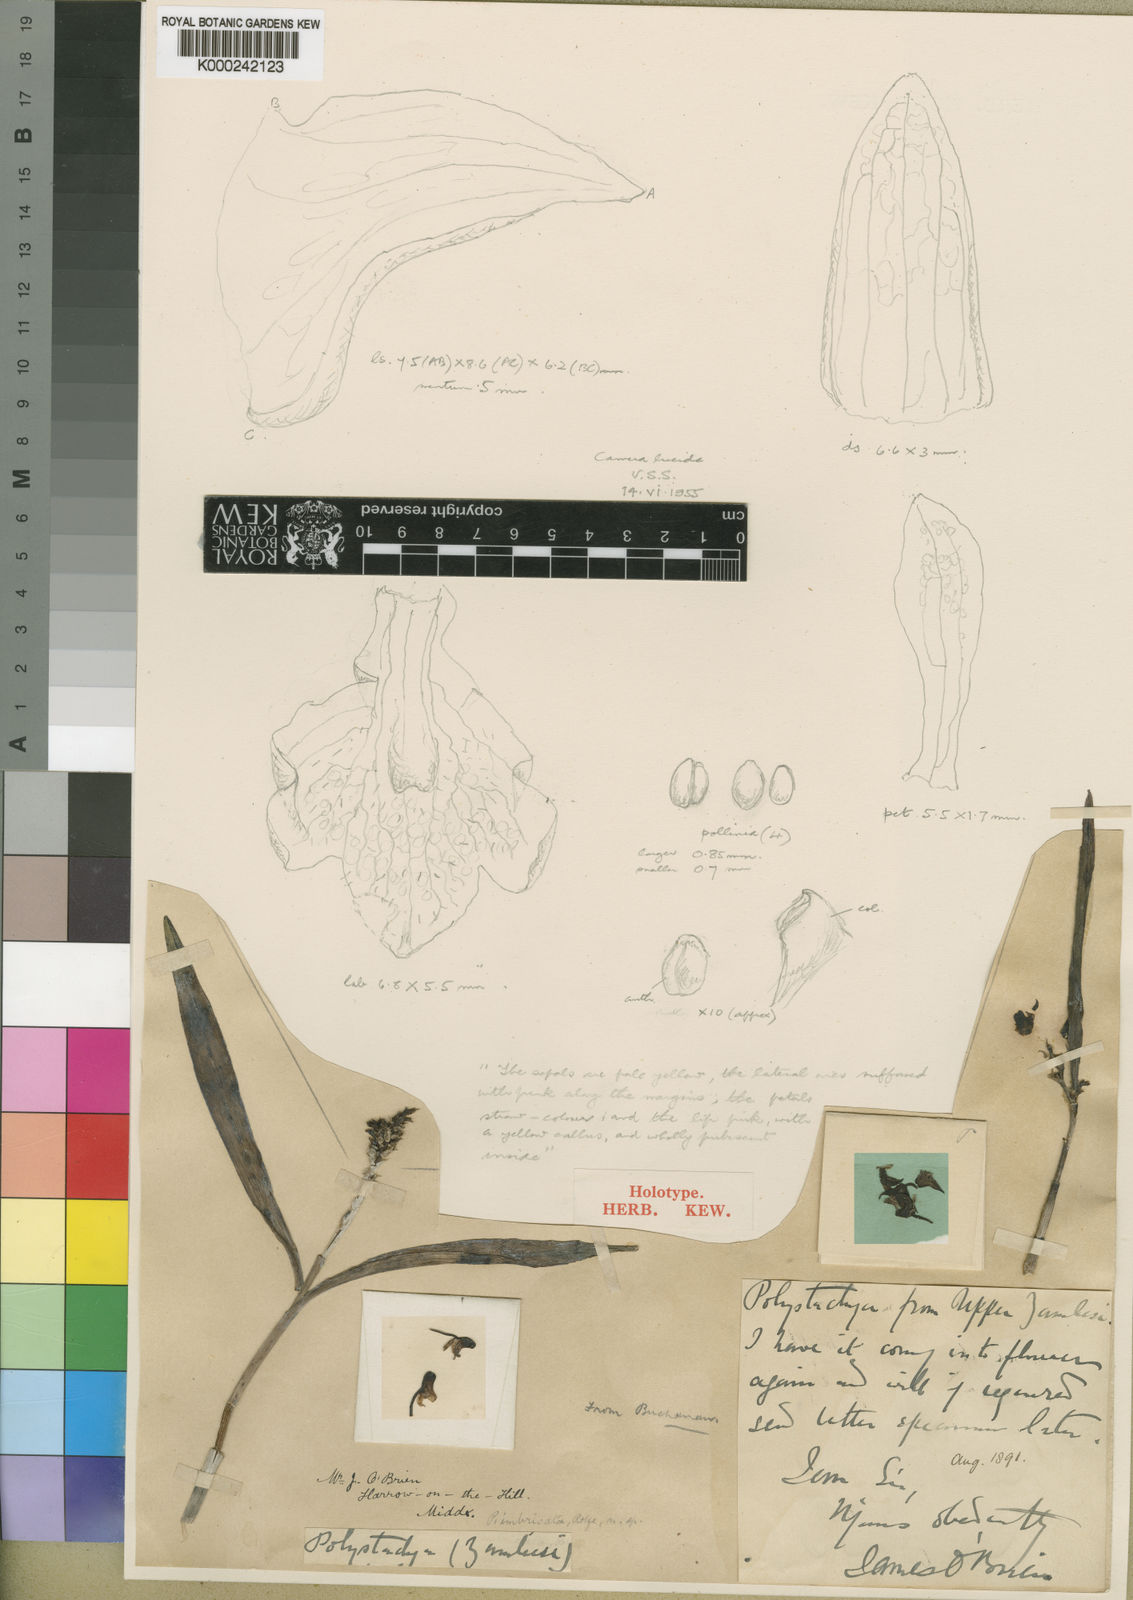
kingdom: Plantae
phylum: Tracheophyta
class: Liliopsida
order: Asparagales
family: Orchidaceae
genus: Polystachya
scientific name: Polystachya albescens
